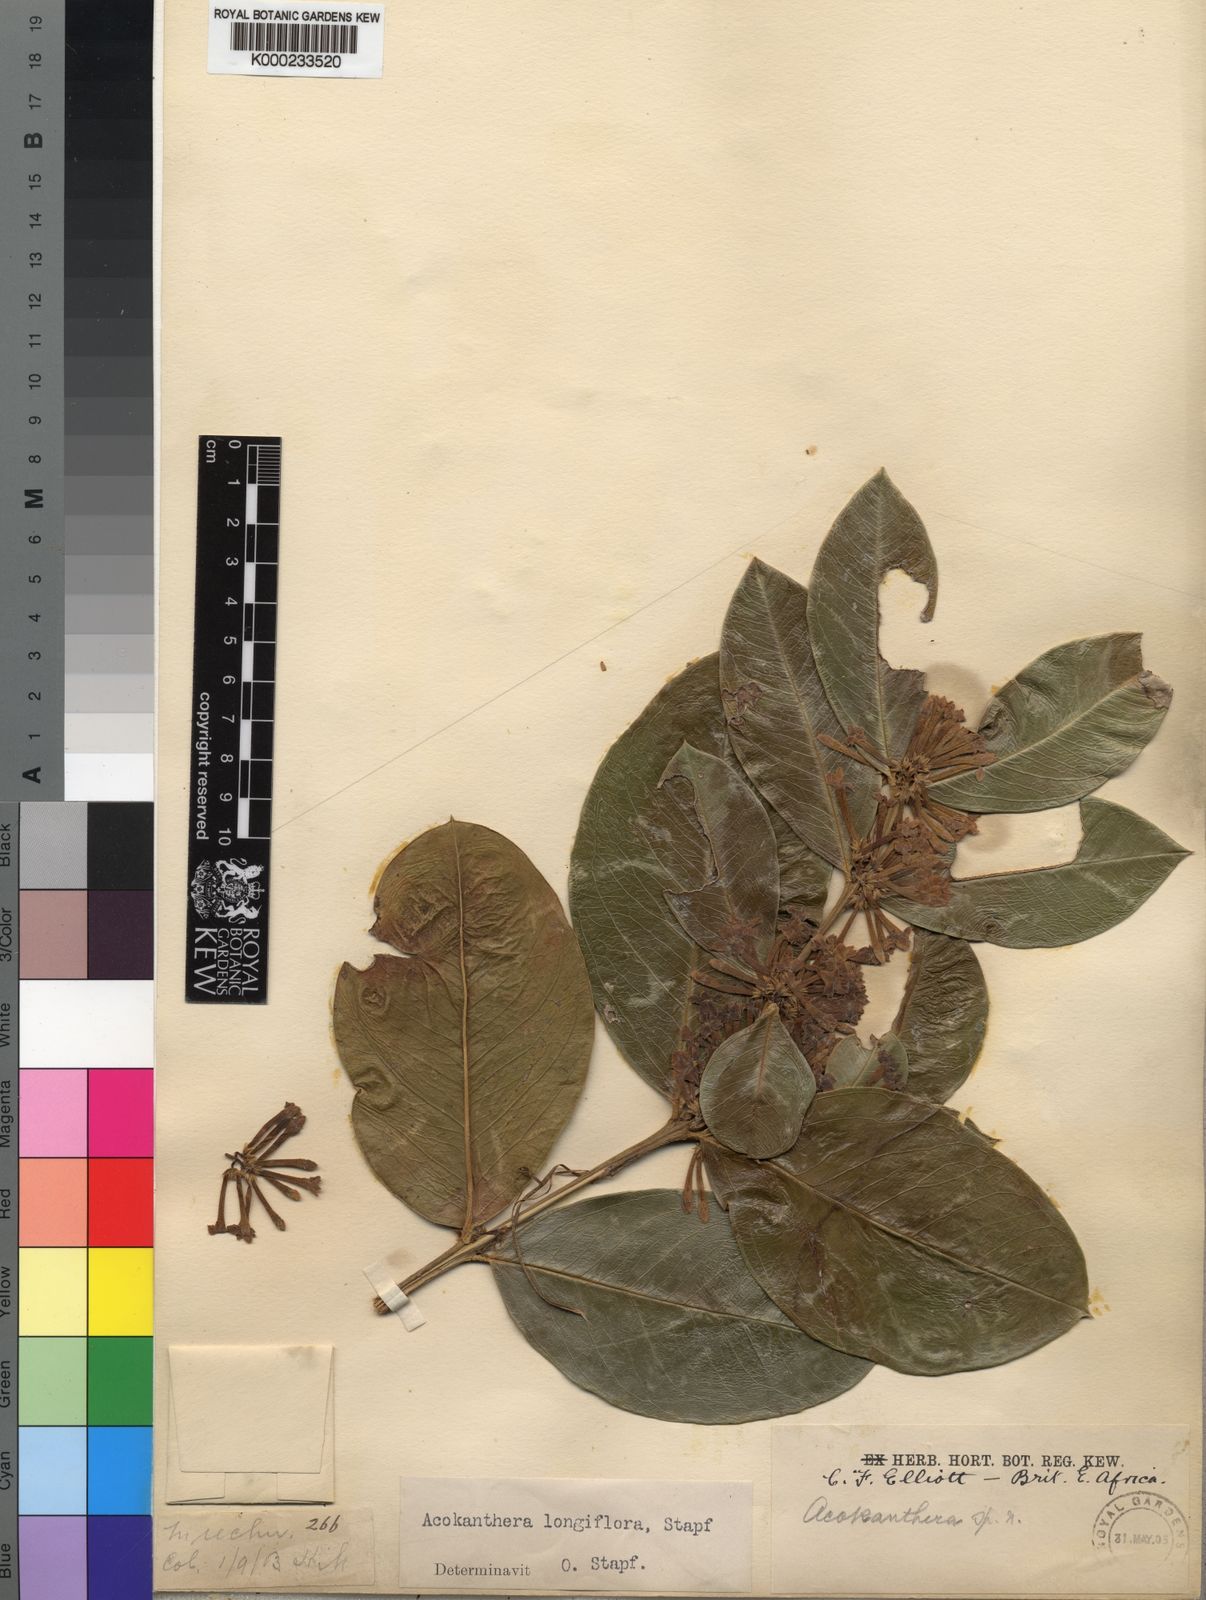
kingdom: Plantae
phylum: Tracheophyta
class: Magnoliopsida
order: Gentianales
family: Apocynaceae
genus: Acokanthera
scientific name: Acokanthera oppositifolia
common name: Bushman's-poison
